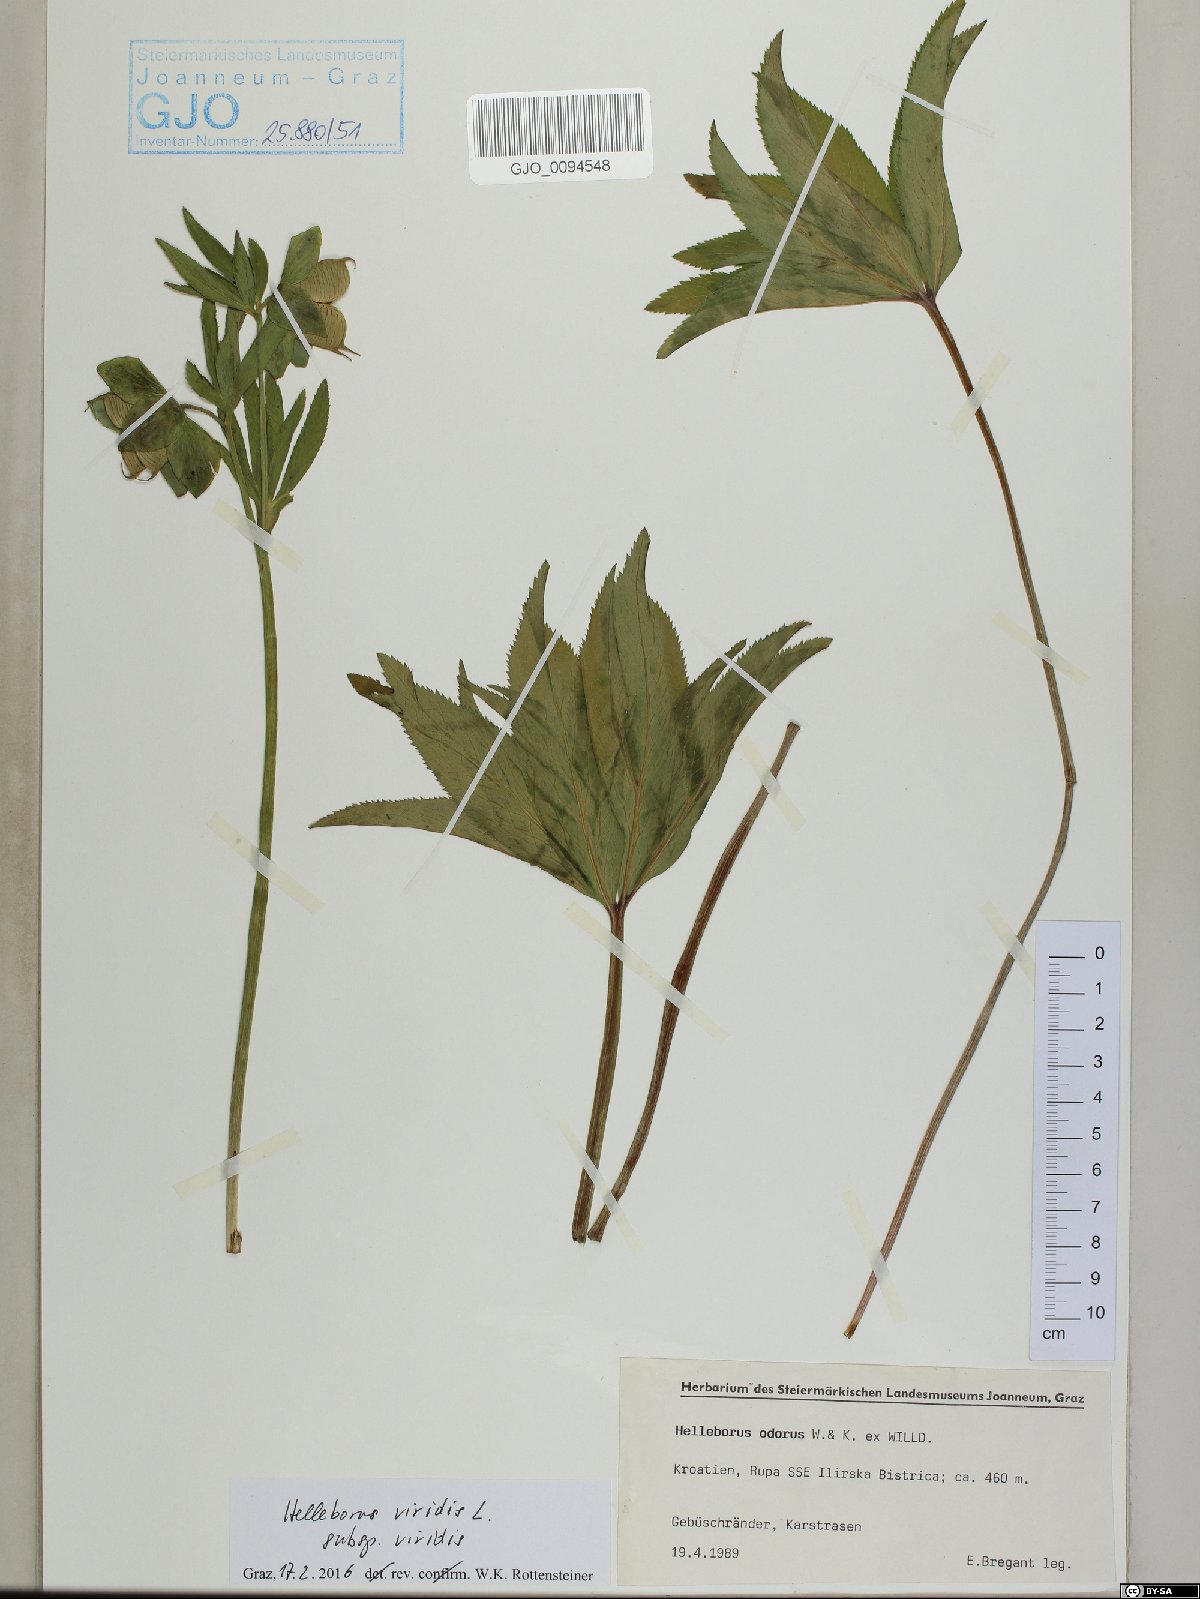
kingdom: Plantae
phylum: Tracheophyta
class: Magnoliopsida
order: Ranunculales
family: Ranunculaceae
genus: Helleborus
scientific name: Helleborus viridis
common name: Green hellebore
